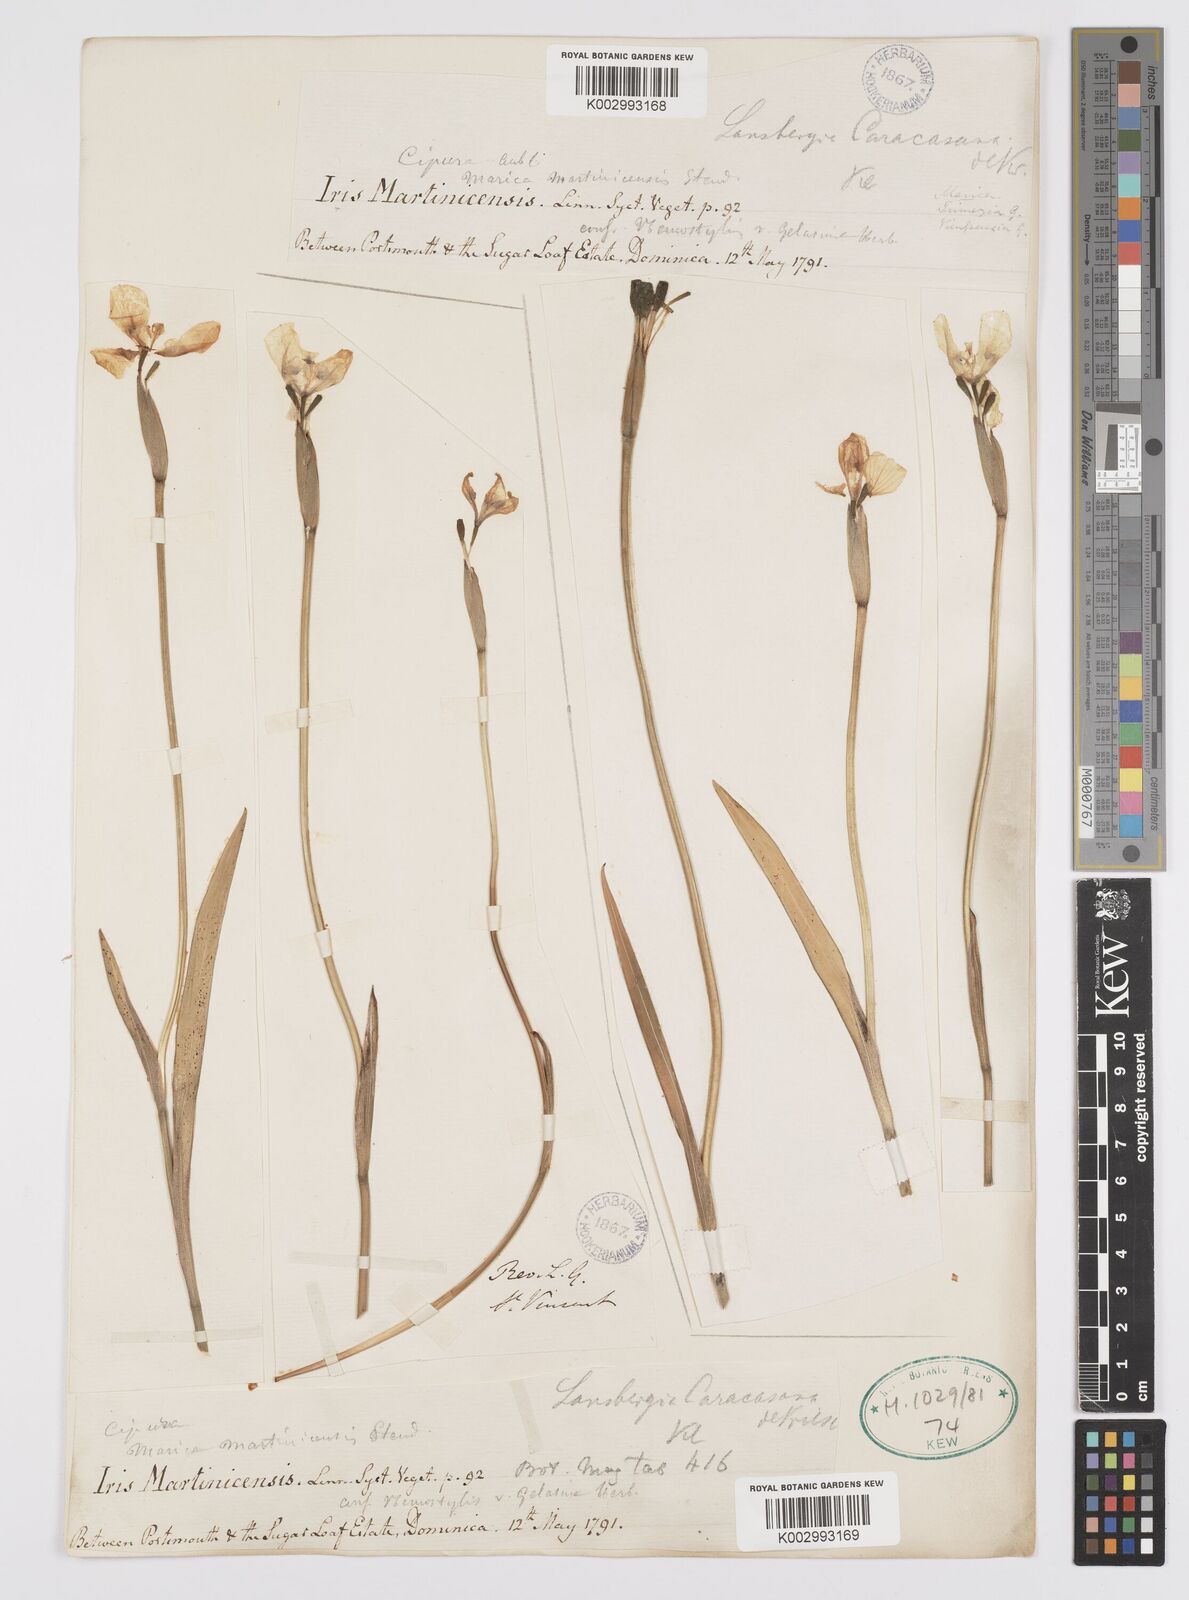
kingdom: Plantae
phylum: Tracheophyta
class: Liliopsida
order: Asparagales
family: Iridaceae
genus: Trimezia
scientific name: Trimezia martinicensis
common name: Martinique trimezia
